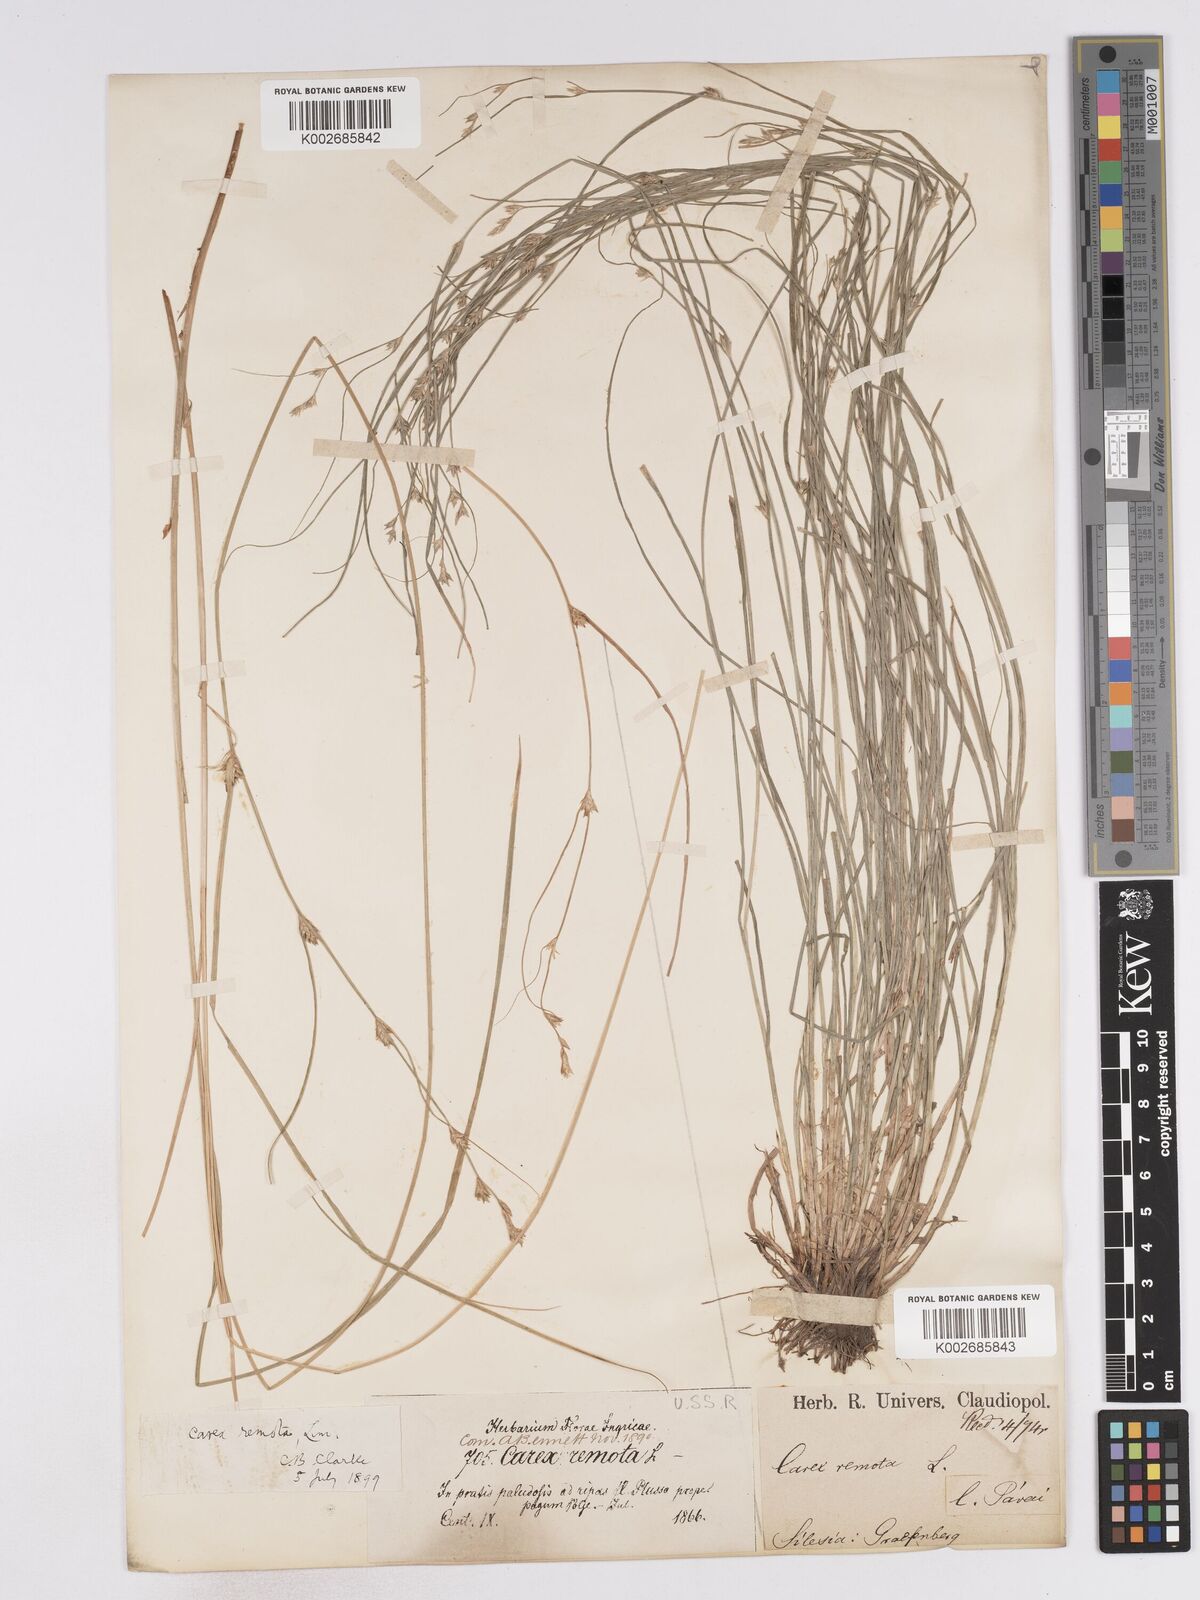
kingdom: Plantae
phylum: Tracheophyta
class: Liliopsida
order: Poales
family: Cyperaceae
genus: Carex
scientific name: Carex remota
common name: Remote sedge
